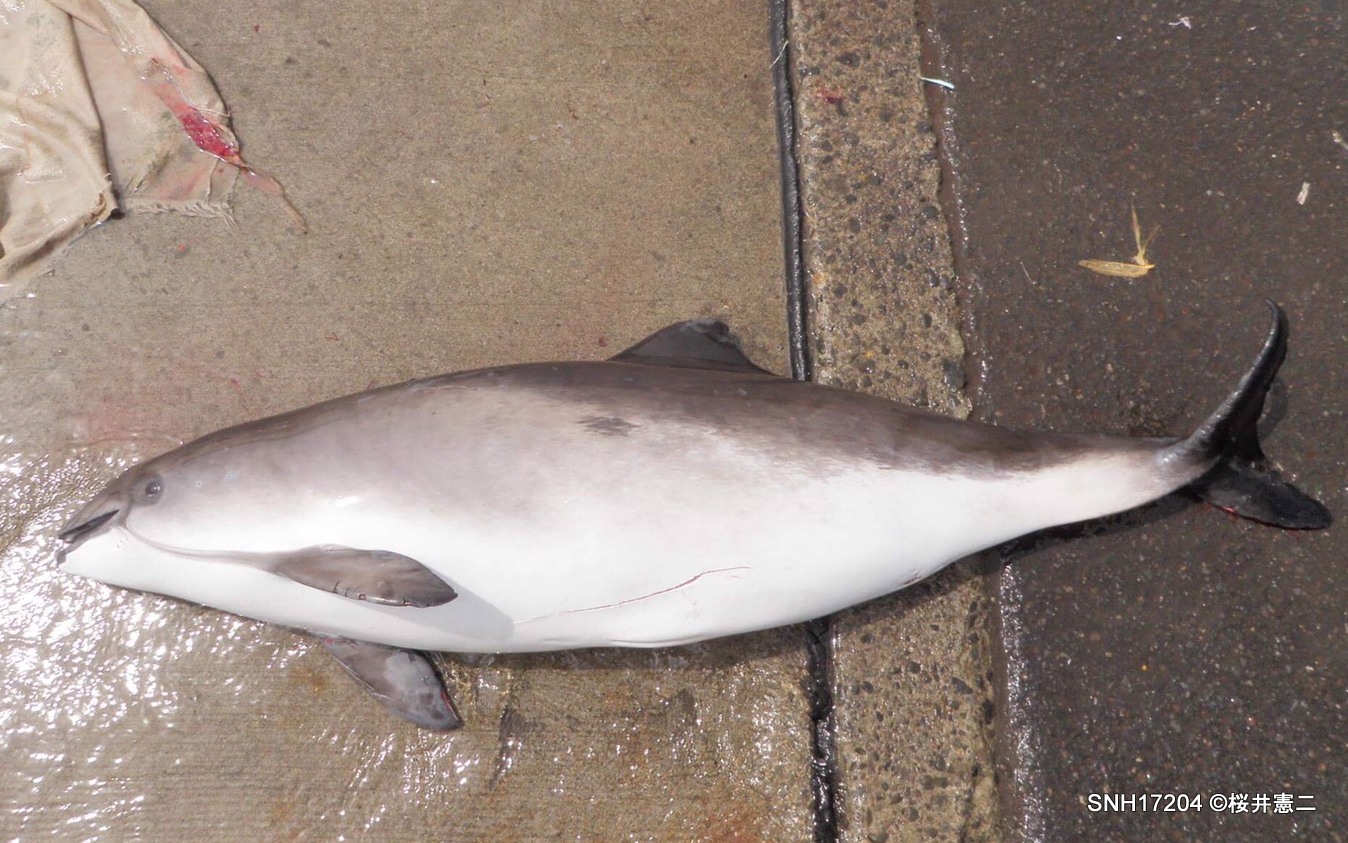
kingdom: Animalia
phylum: Chordata
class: Mammalia
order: Cetacea
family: Phocoenidae
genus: Phocoena
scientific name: Phocoena phocoena
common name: Harbour porpoise
